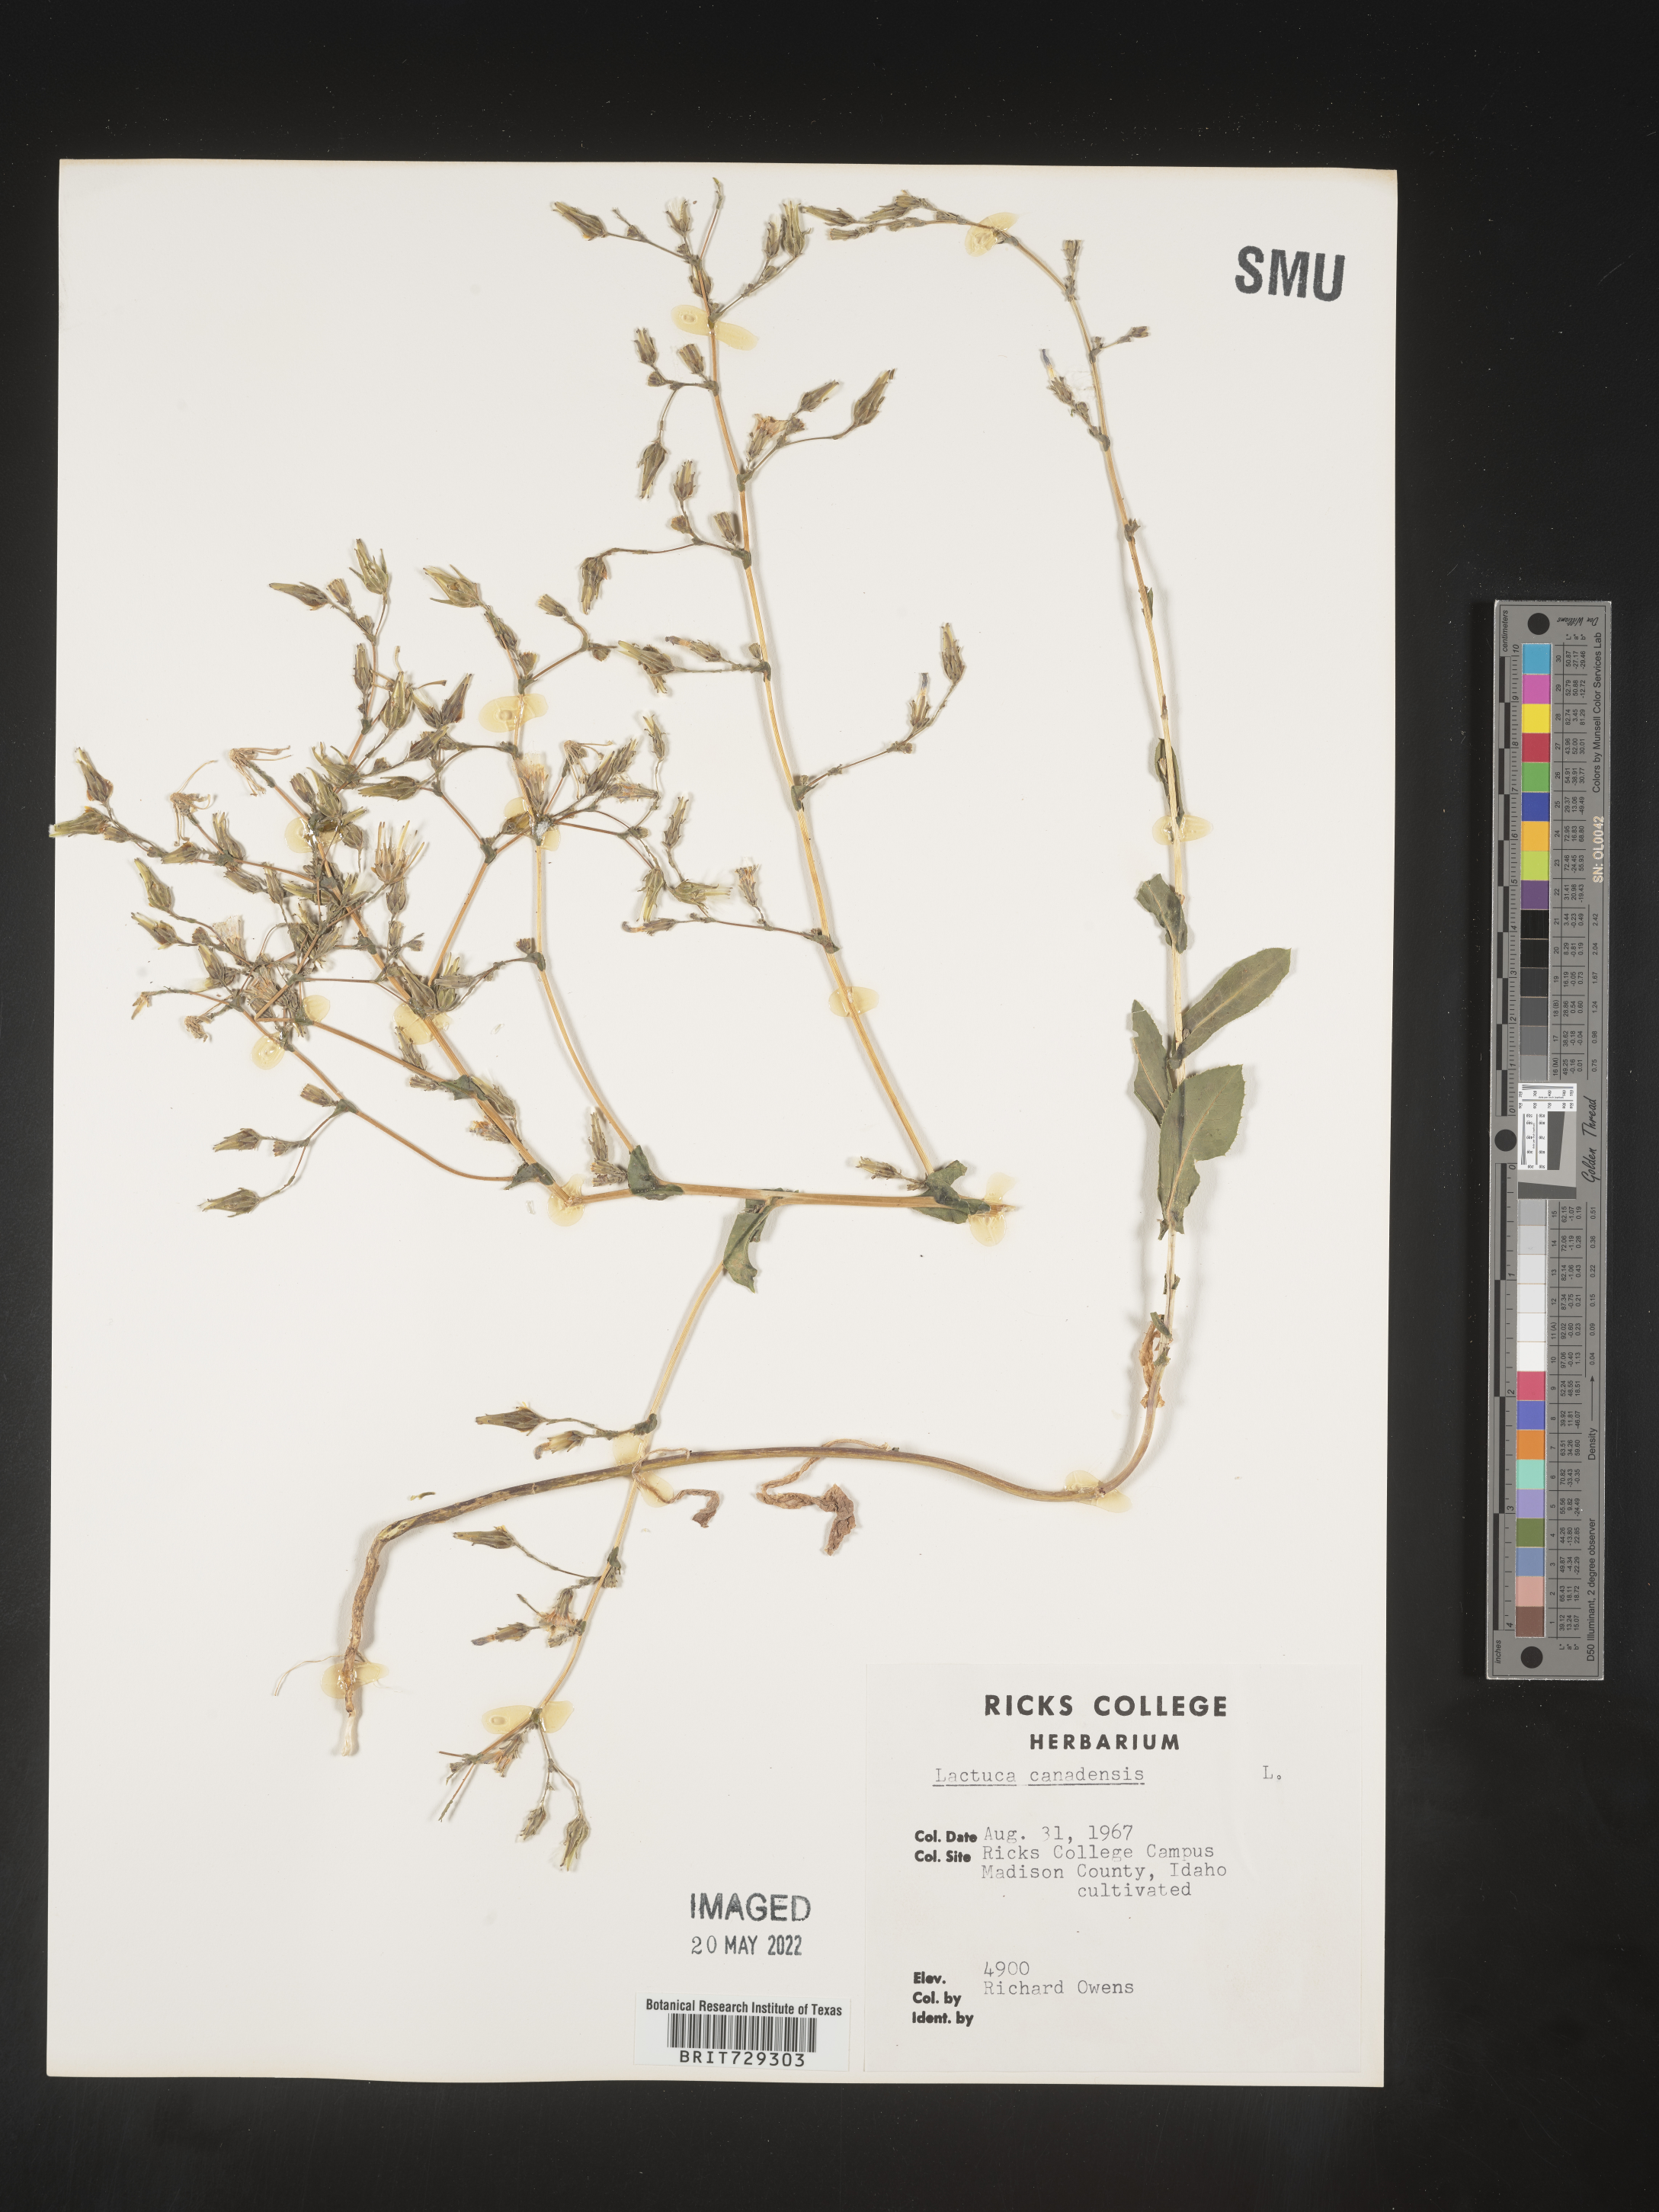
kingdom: Plantae
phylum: Tracheophyta
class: Magnoliopsida
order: Asterales
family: Asteraceae
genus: Lactuca
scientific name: Lactuca
